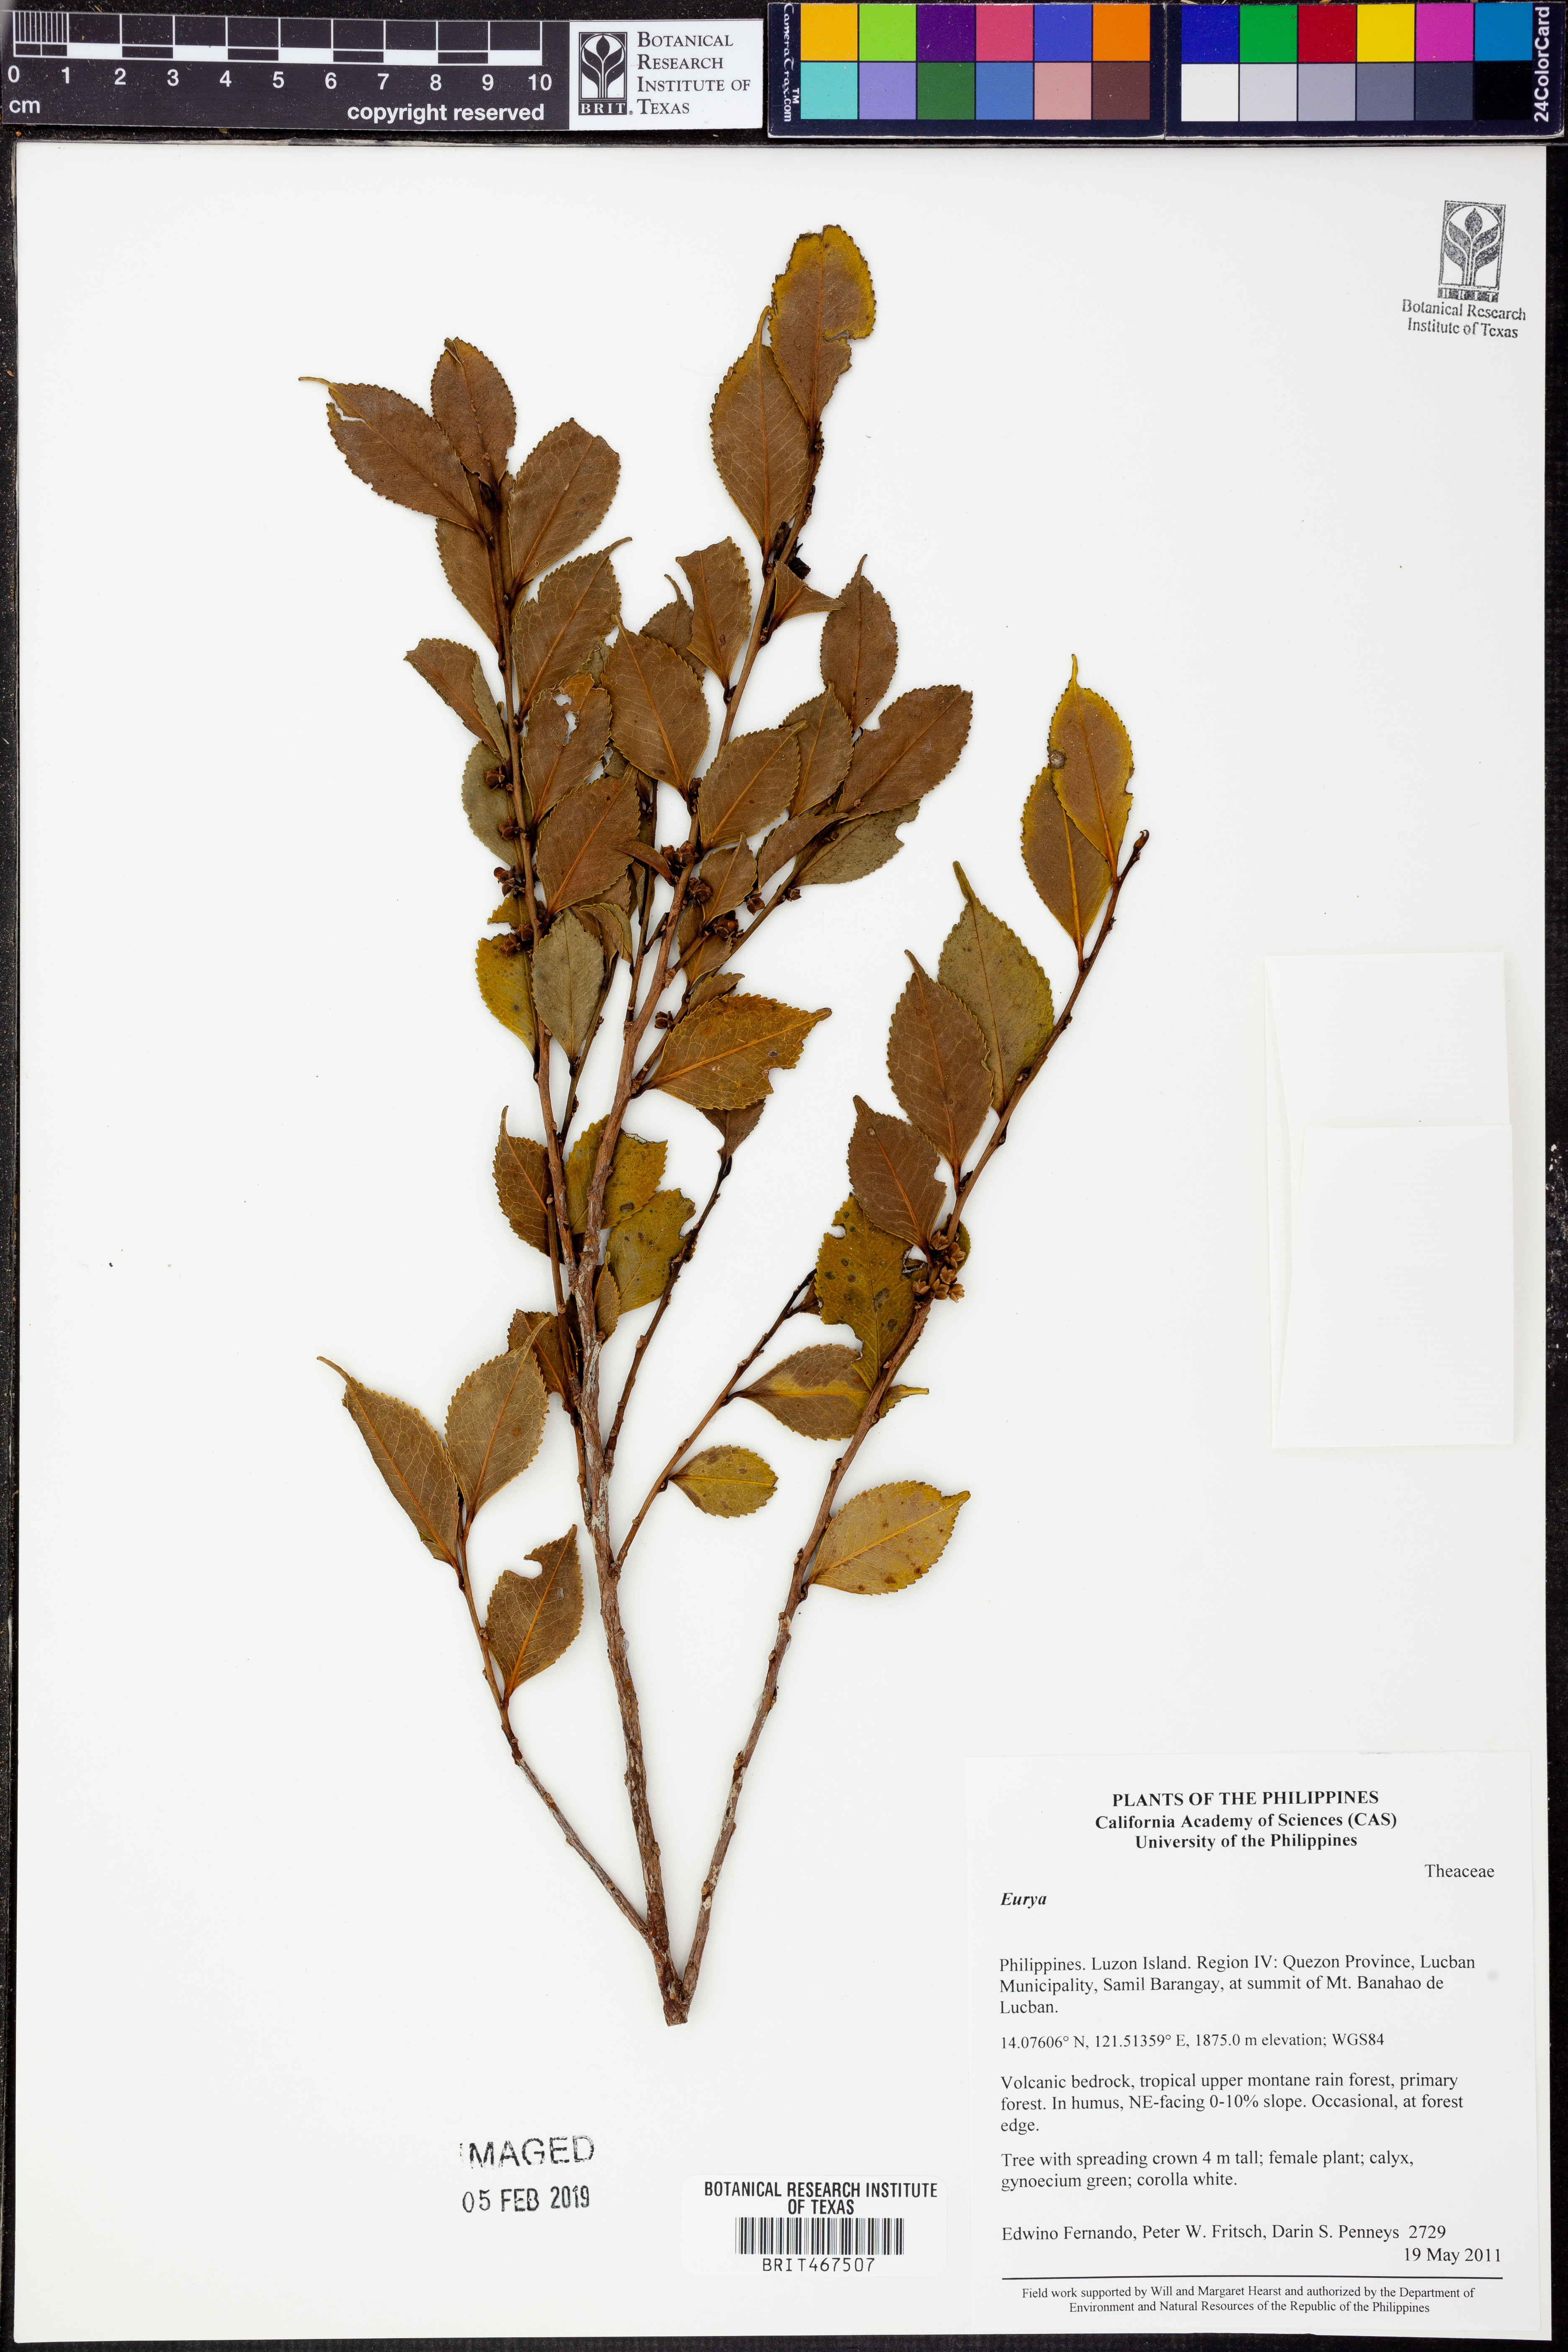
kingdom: Plantae
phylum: Tracheophyta
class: Magnoliopsida
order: Ericales
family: Pentaphylacaceae
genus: Eurya
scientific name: Eurya
